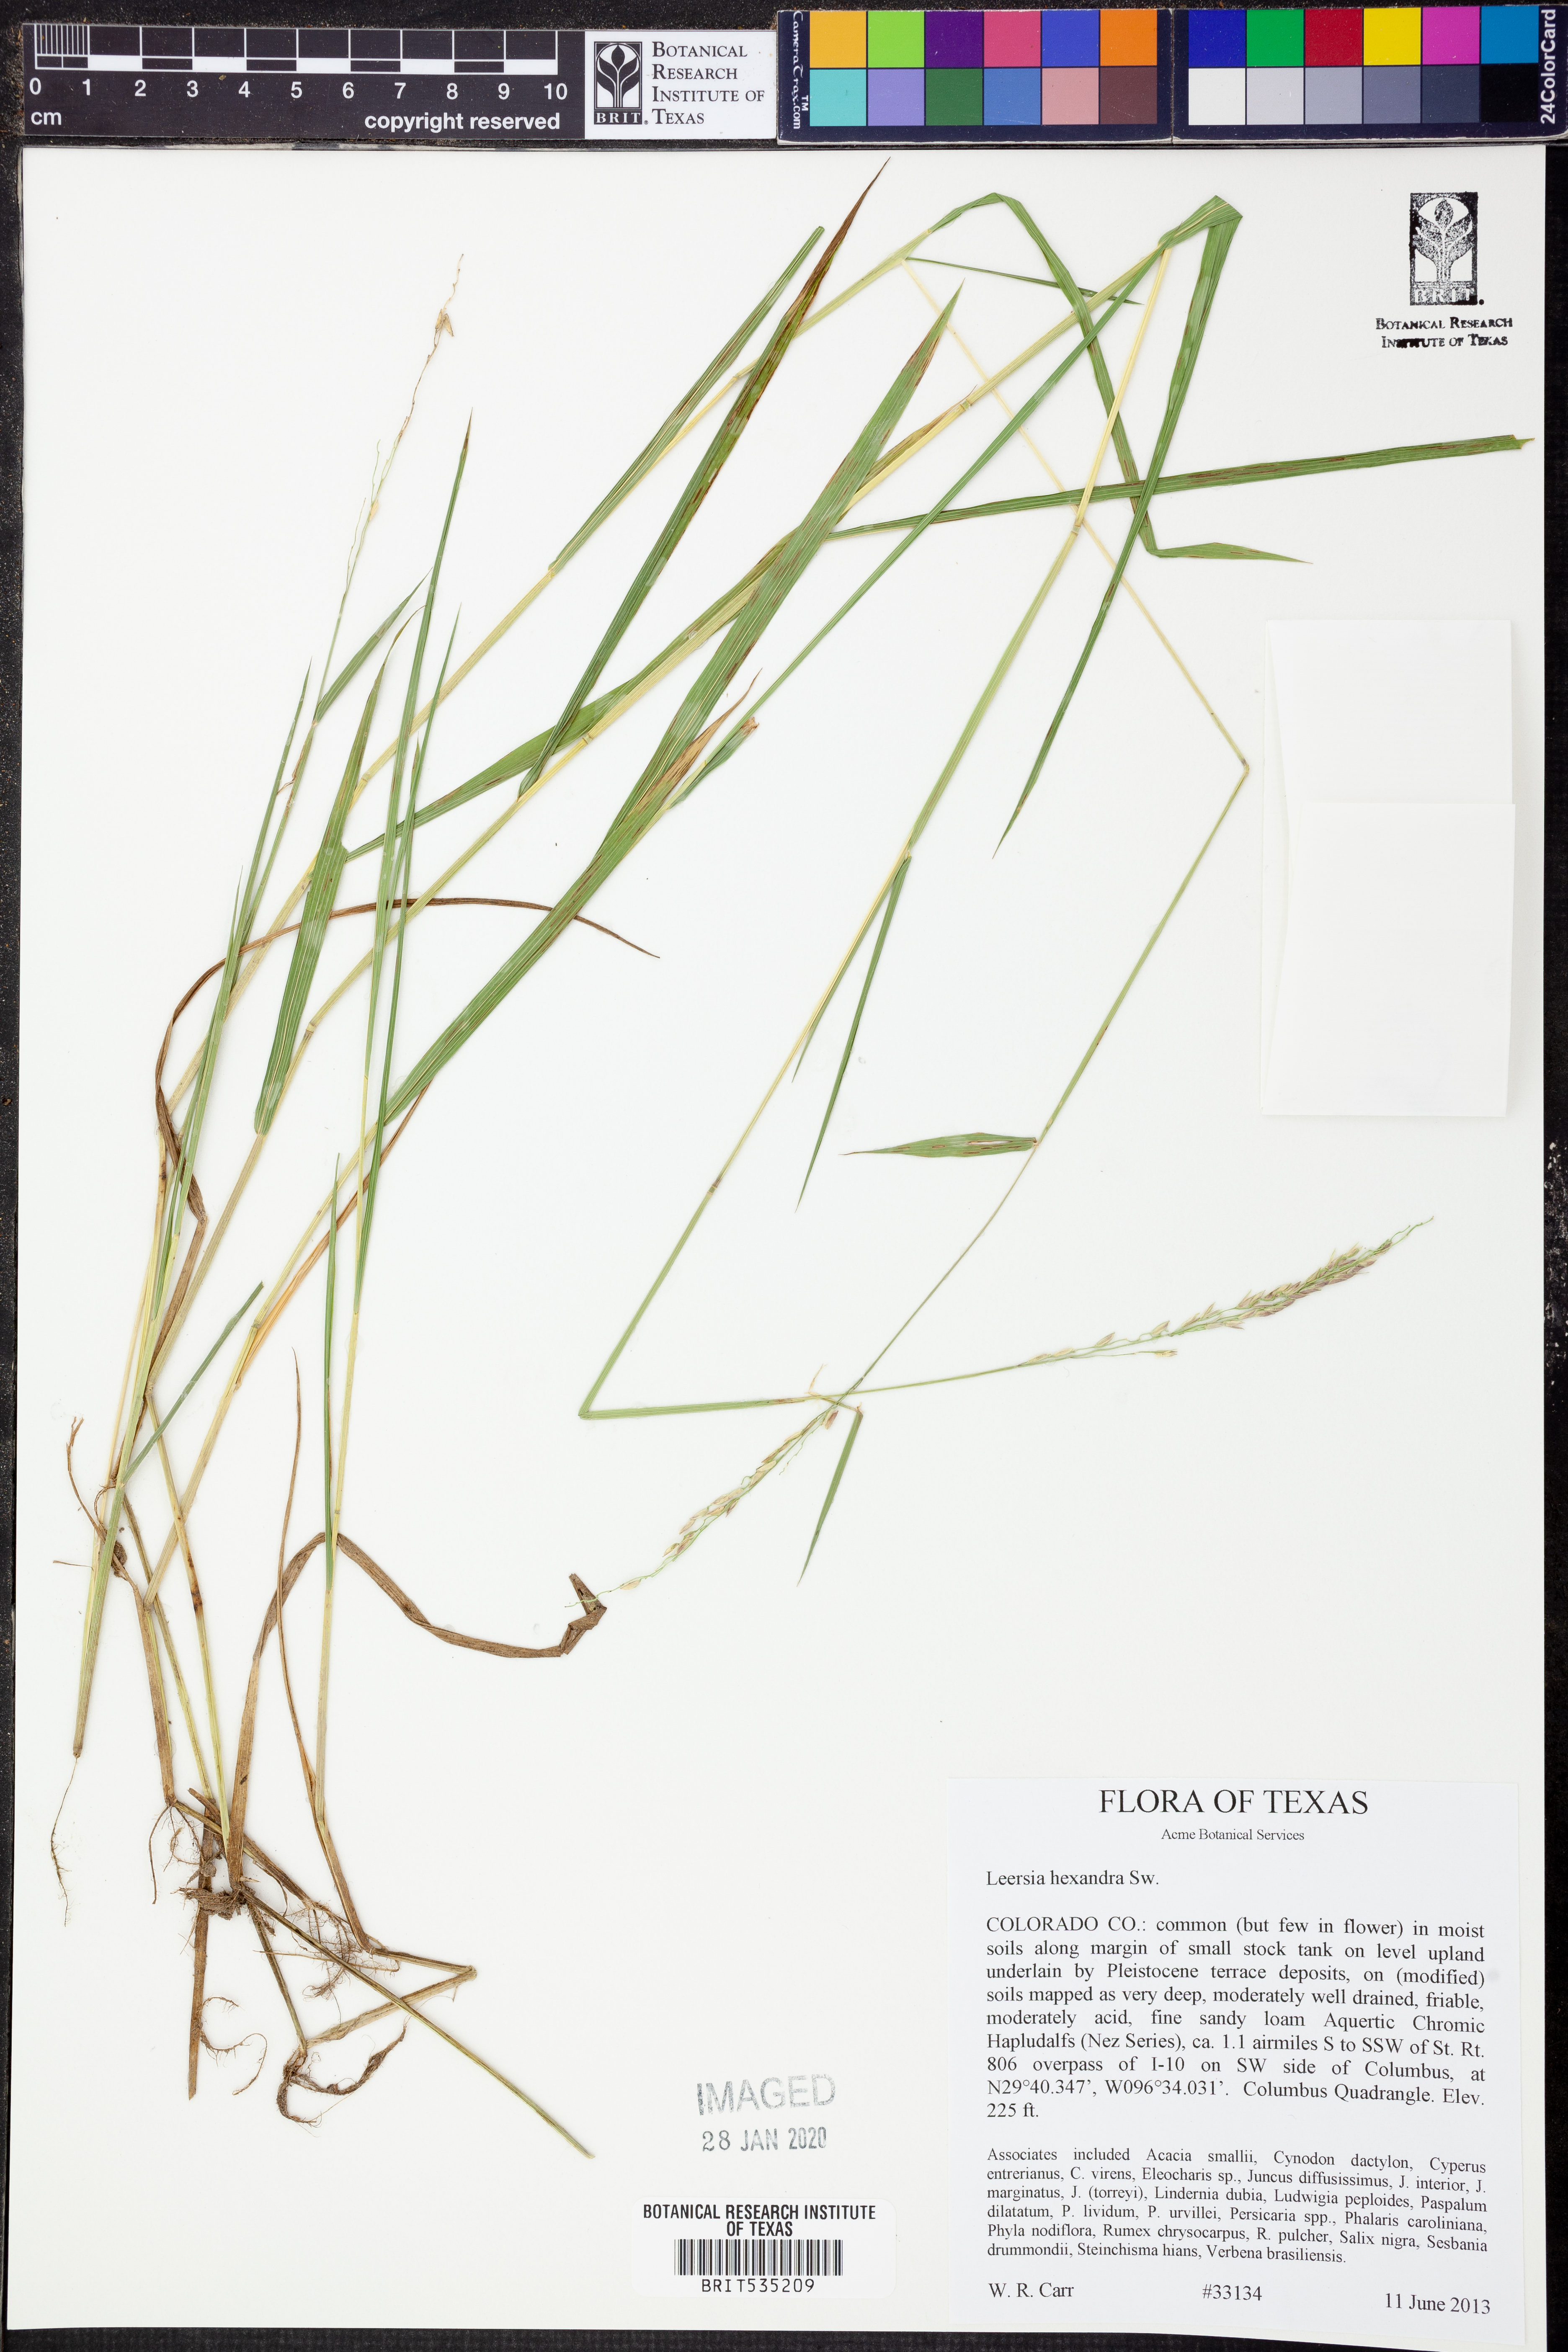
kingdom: Plantae
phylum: Tracheophyta
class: Liliopsida
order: Poales
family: Poaceae
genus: Leersia
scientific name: Leersia hexandra
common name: Southern cut grass
